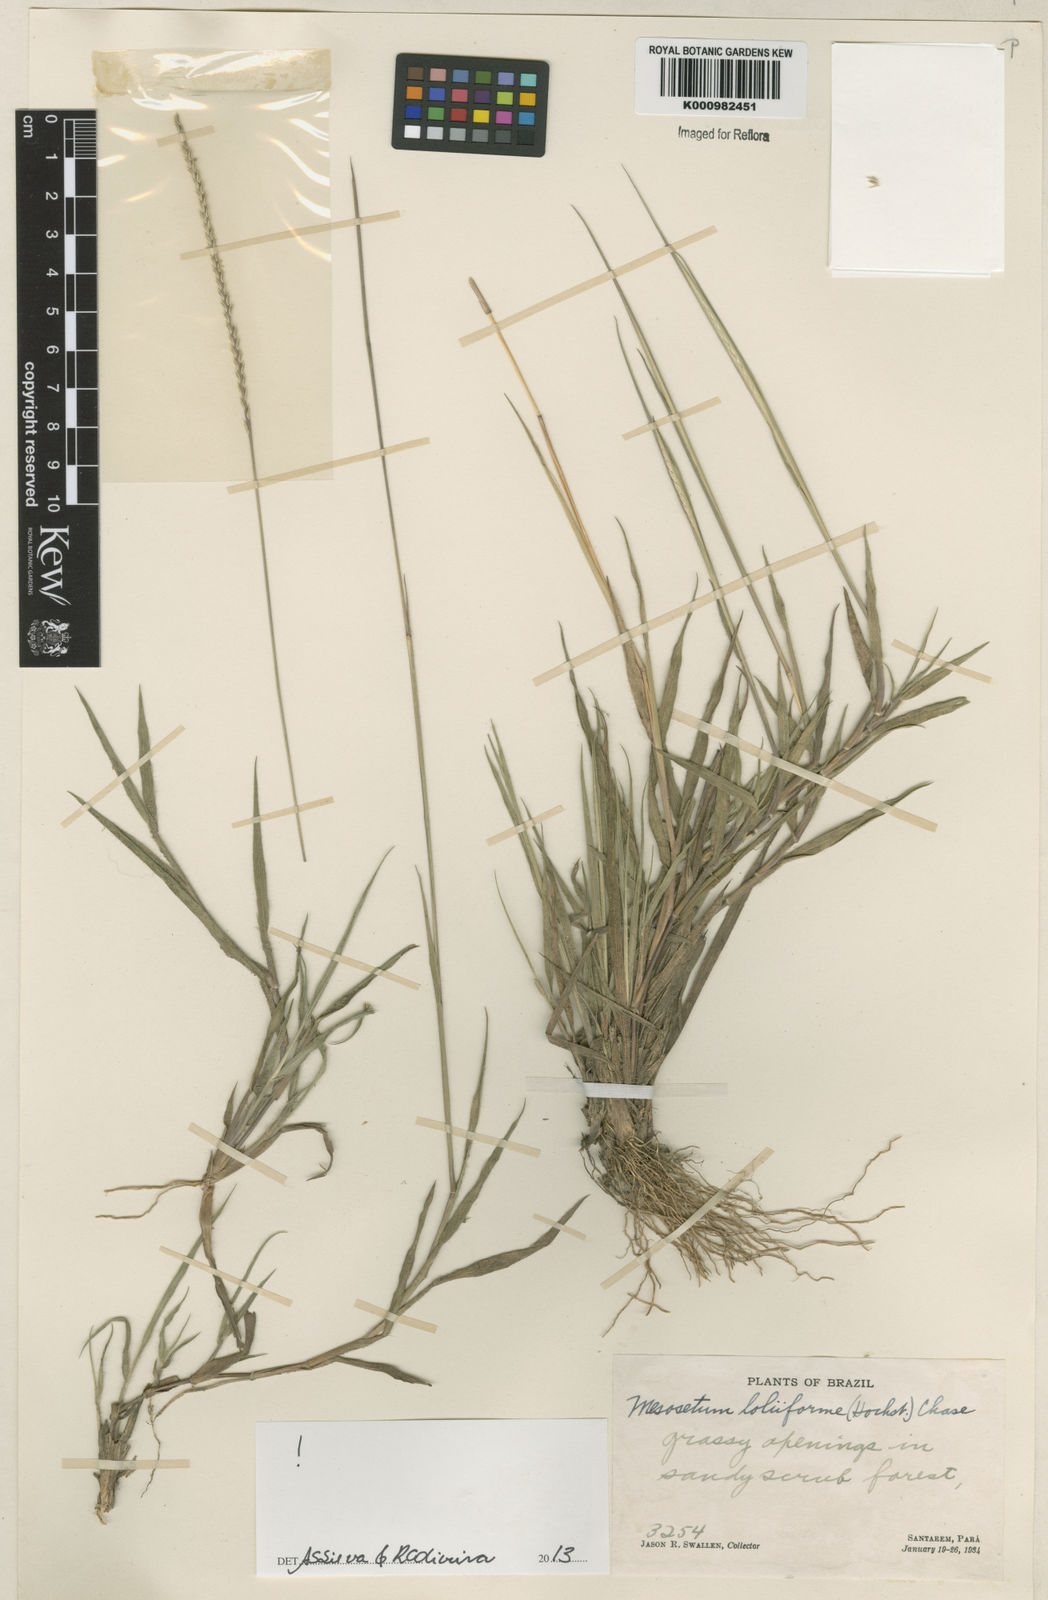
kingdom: Plantae
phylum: Tracheophyta
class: Liliopsida
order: Poales
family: Poaceae
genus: Mesosetum
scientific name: Mesosetum
